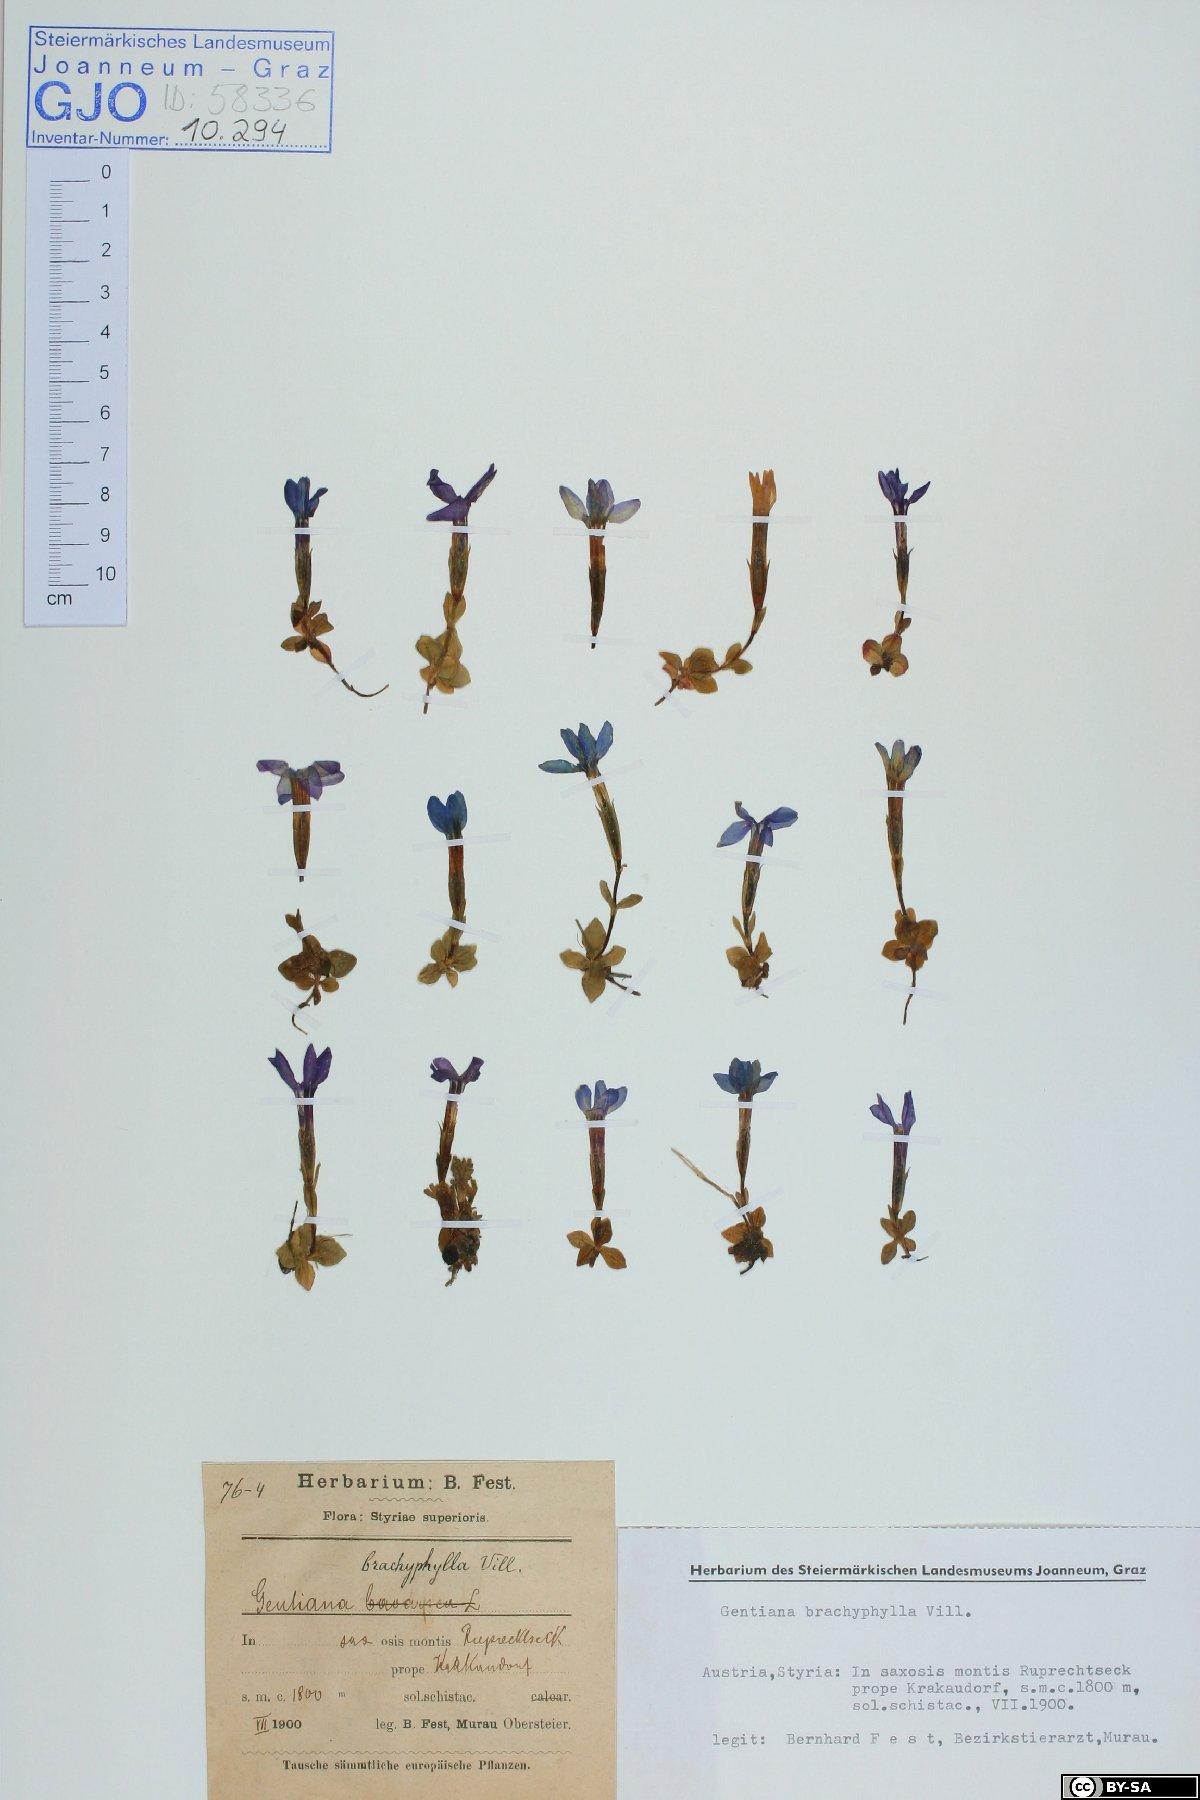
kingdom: Plantae
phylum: Tracheophyta
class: Magnoliopsida
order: Gentianales
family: Gentianaceae
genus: Gentiana
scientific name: Gentiana brachyphylla
